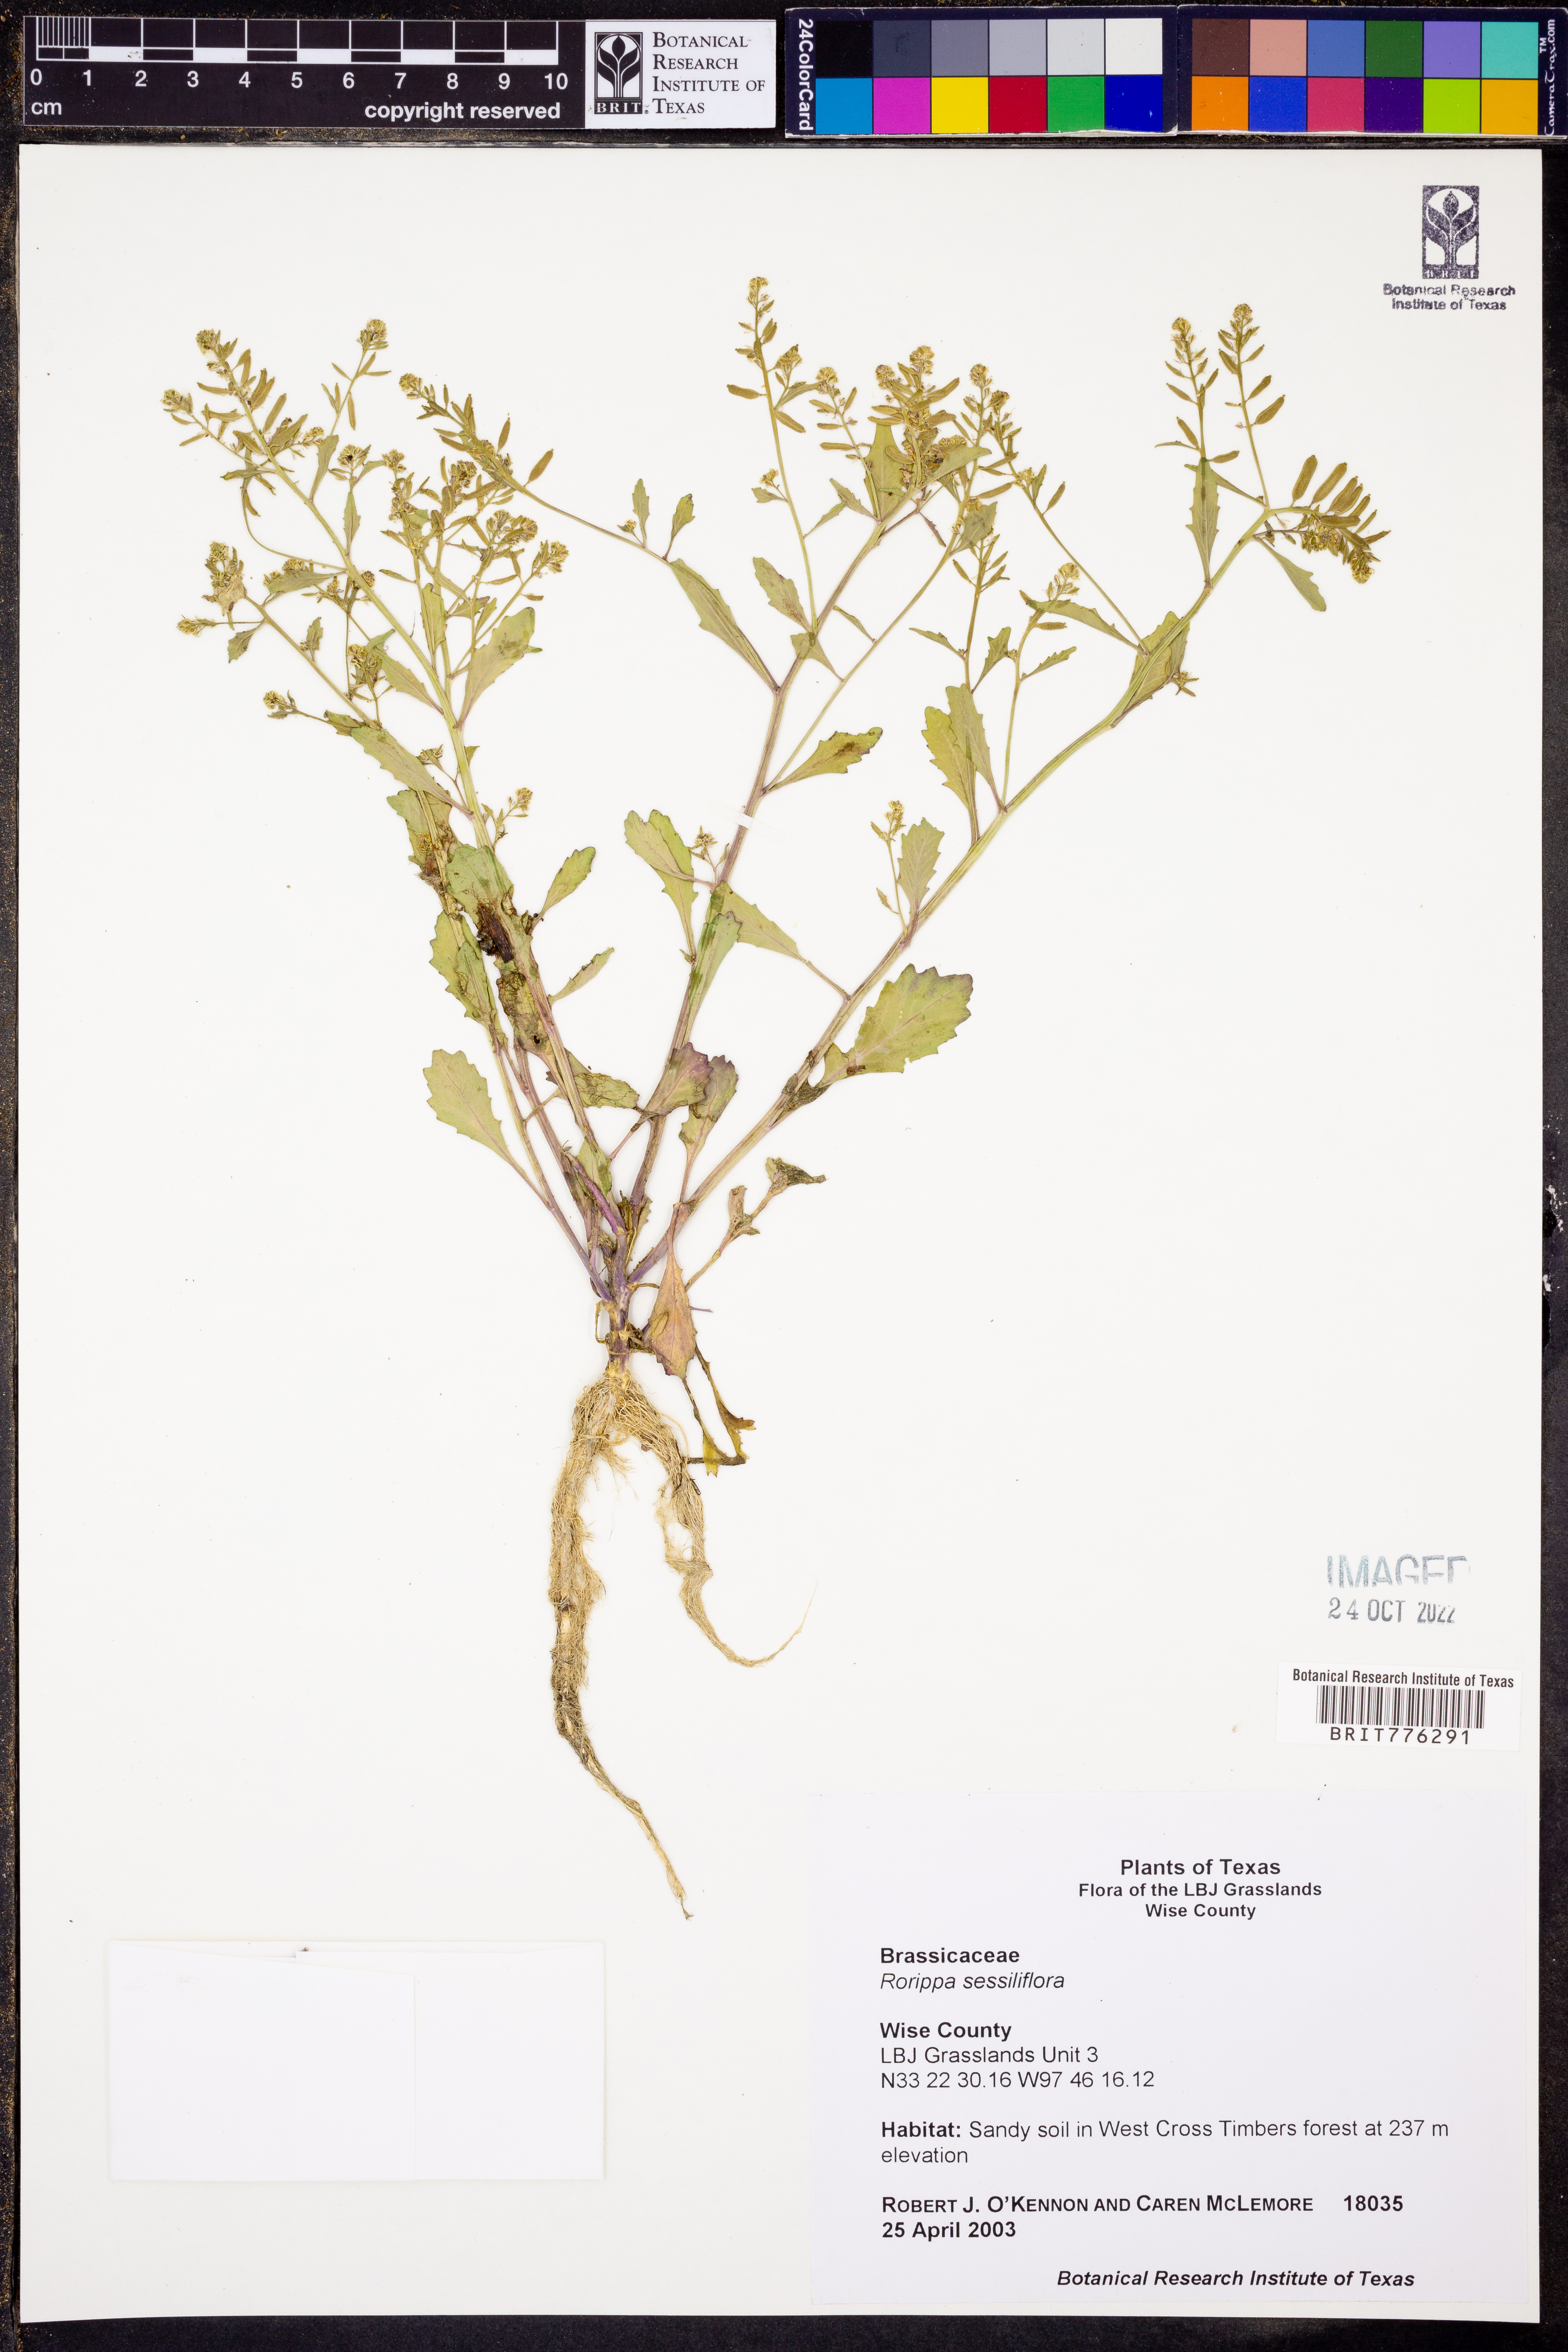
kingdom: Plantae
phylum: Tracheophyta
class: Magnoliopsida
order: Brassicales
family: Brassicaceae
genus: Rorippa
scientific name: Rorippa sessiliflora
